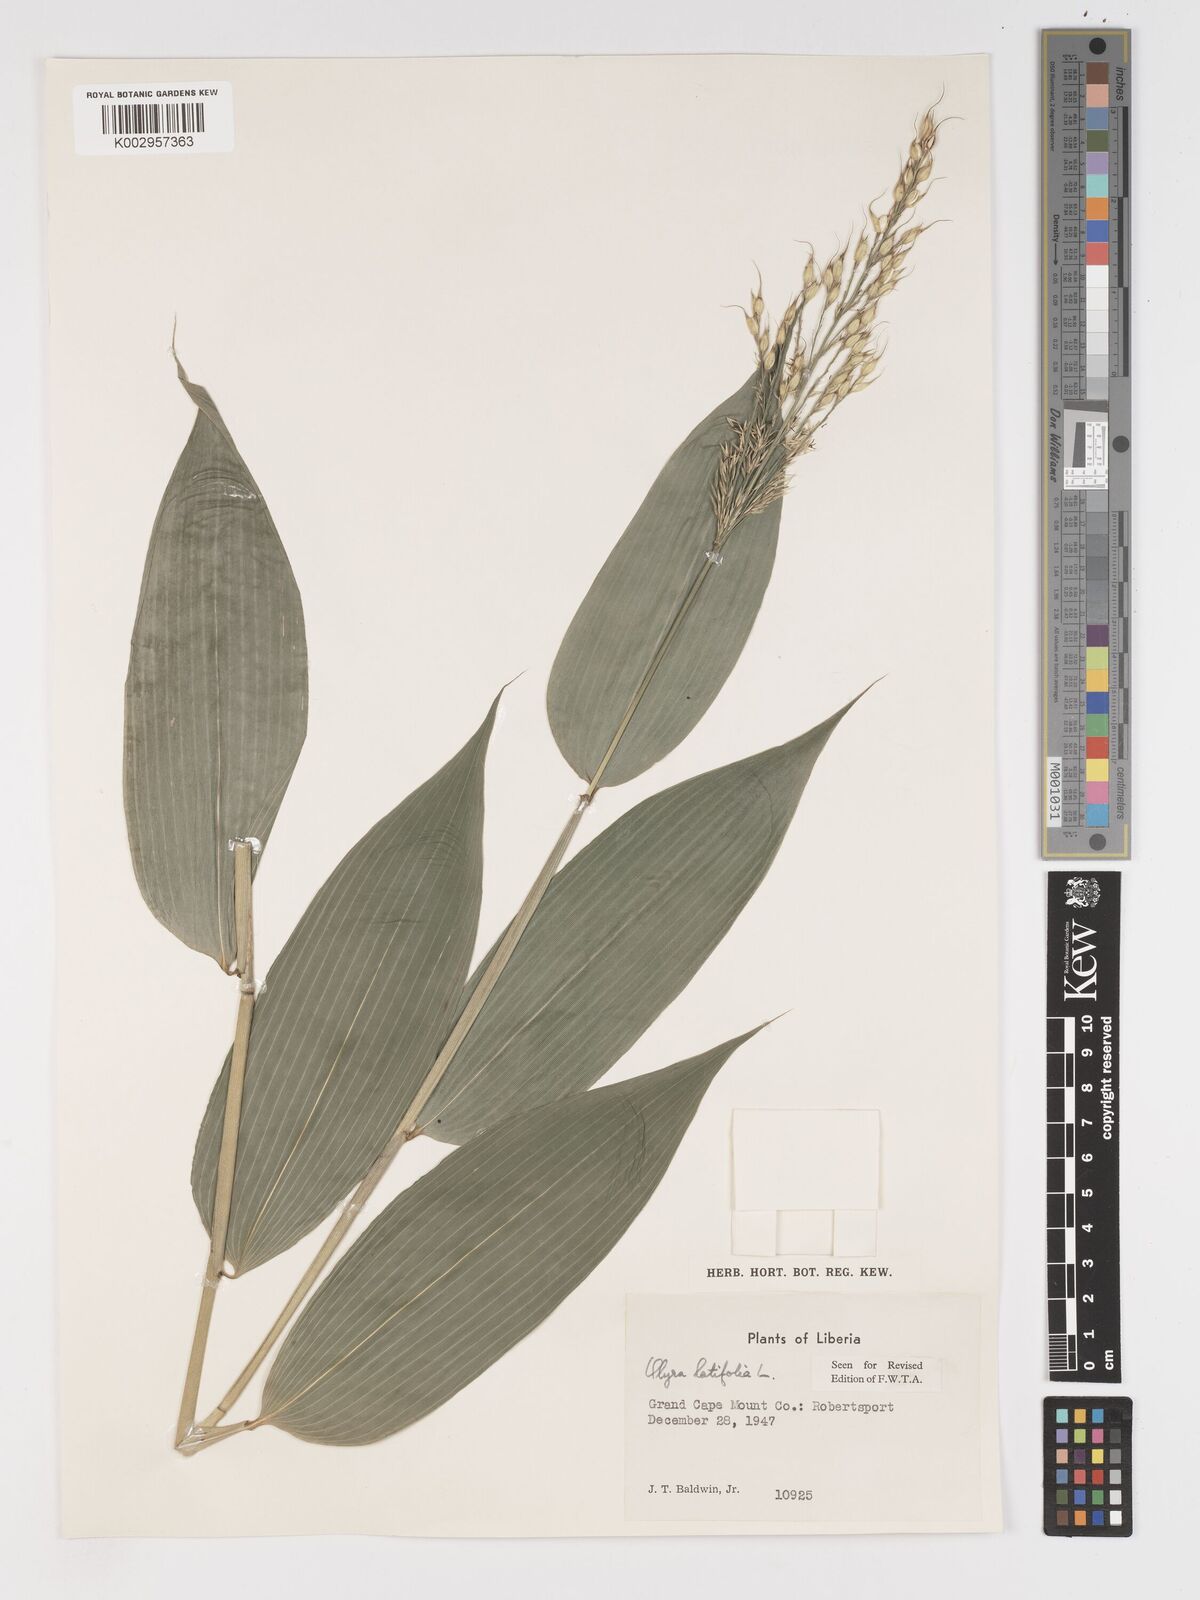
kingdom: Plantae
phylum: Tracheophyta
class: Liliopsida
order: Poales
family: Poaceae
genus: Olyra
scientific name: Olyra latifolia
